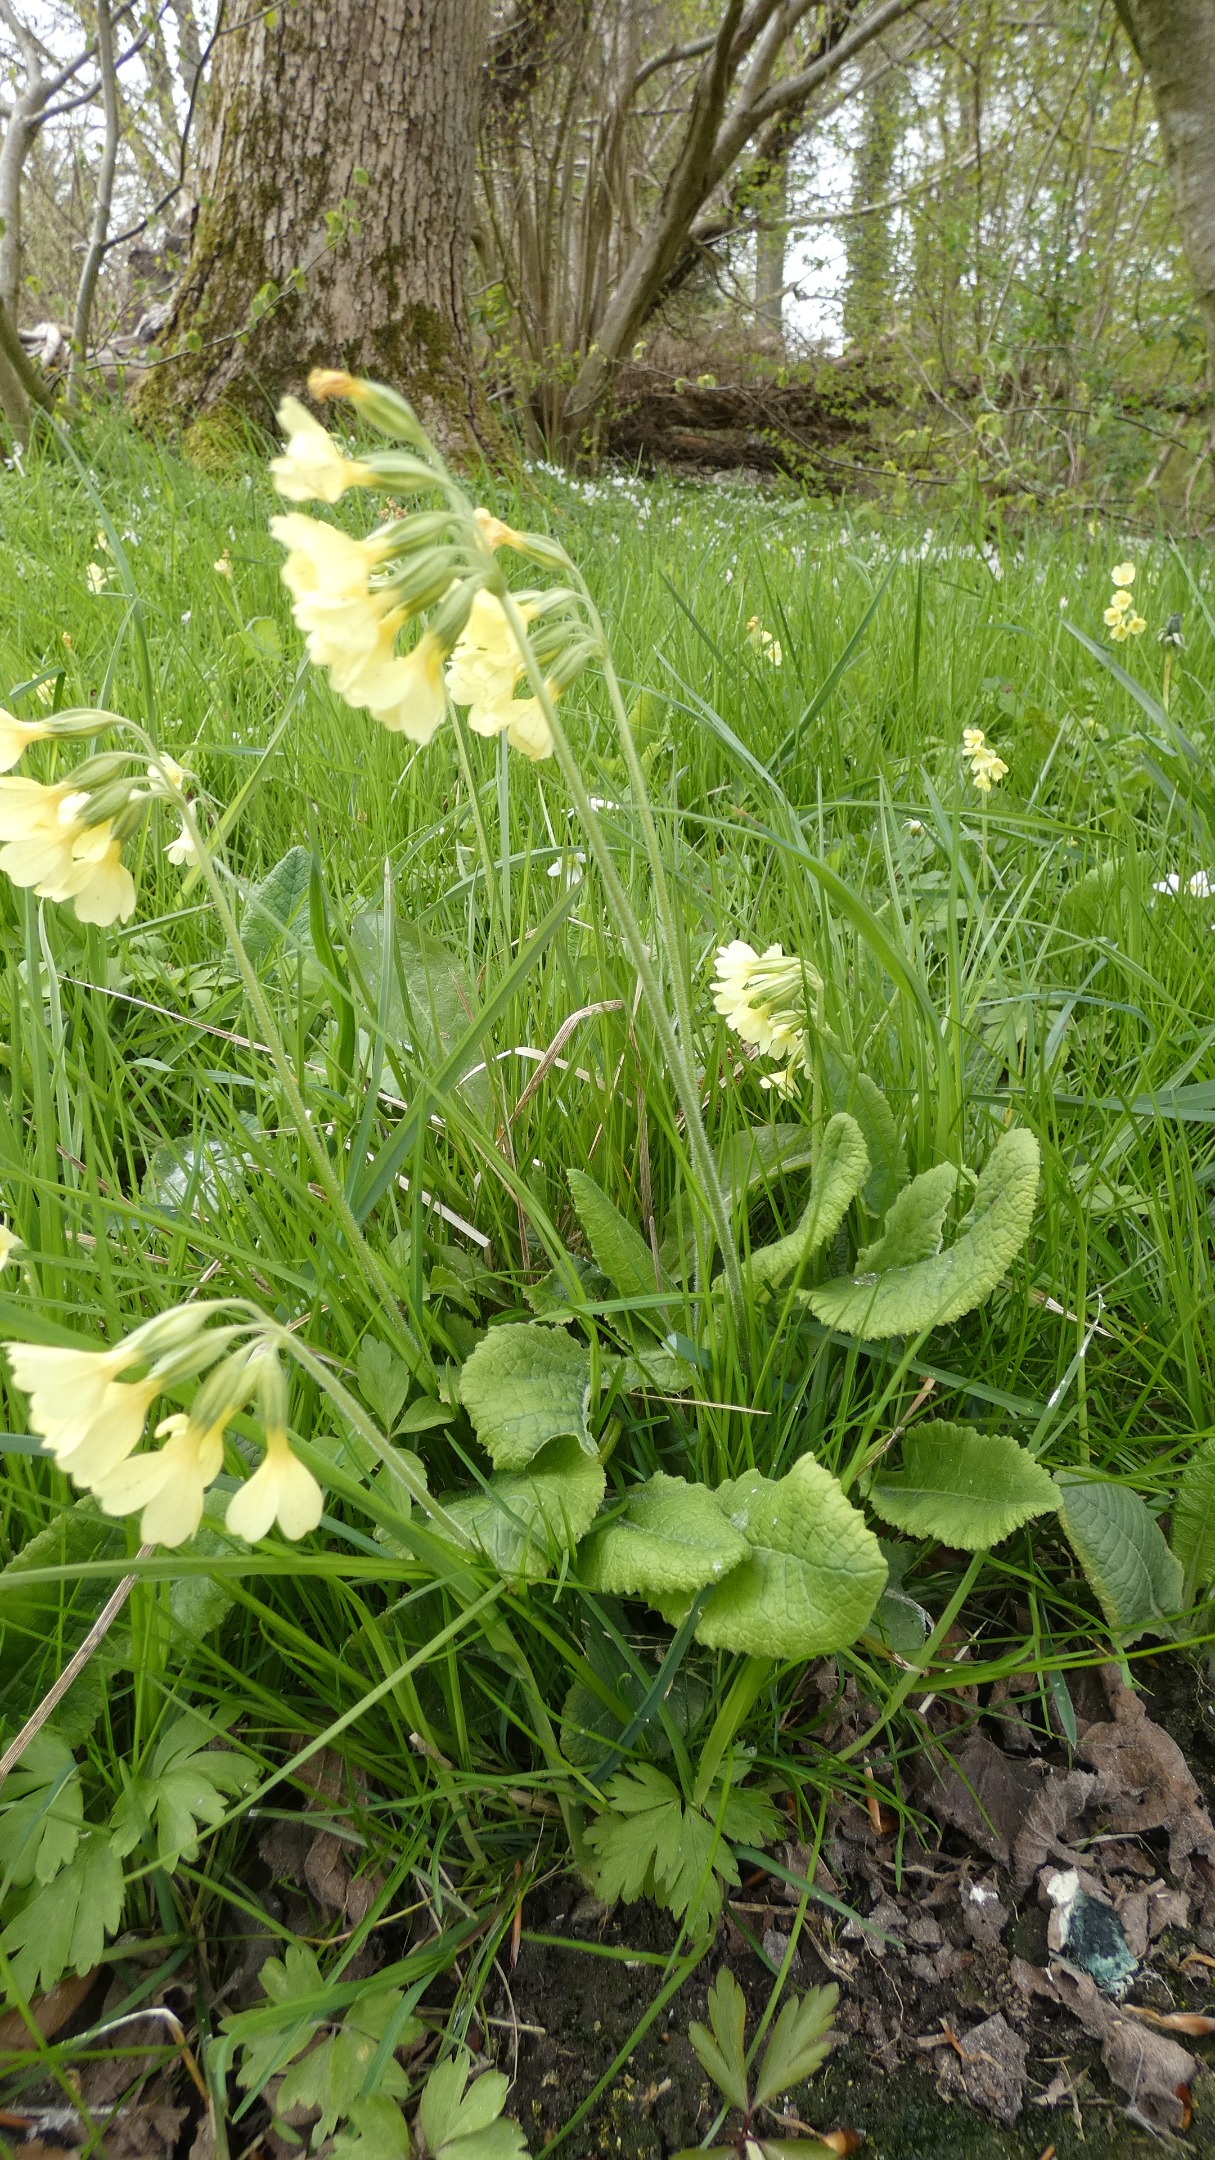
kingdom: Plantae
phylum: Tracheophyta
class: Magnoliopsida
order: Ericales
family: Primulaceae
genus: Primula
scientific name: Primula elatior
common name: Fladkravet kodriver
